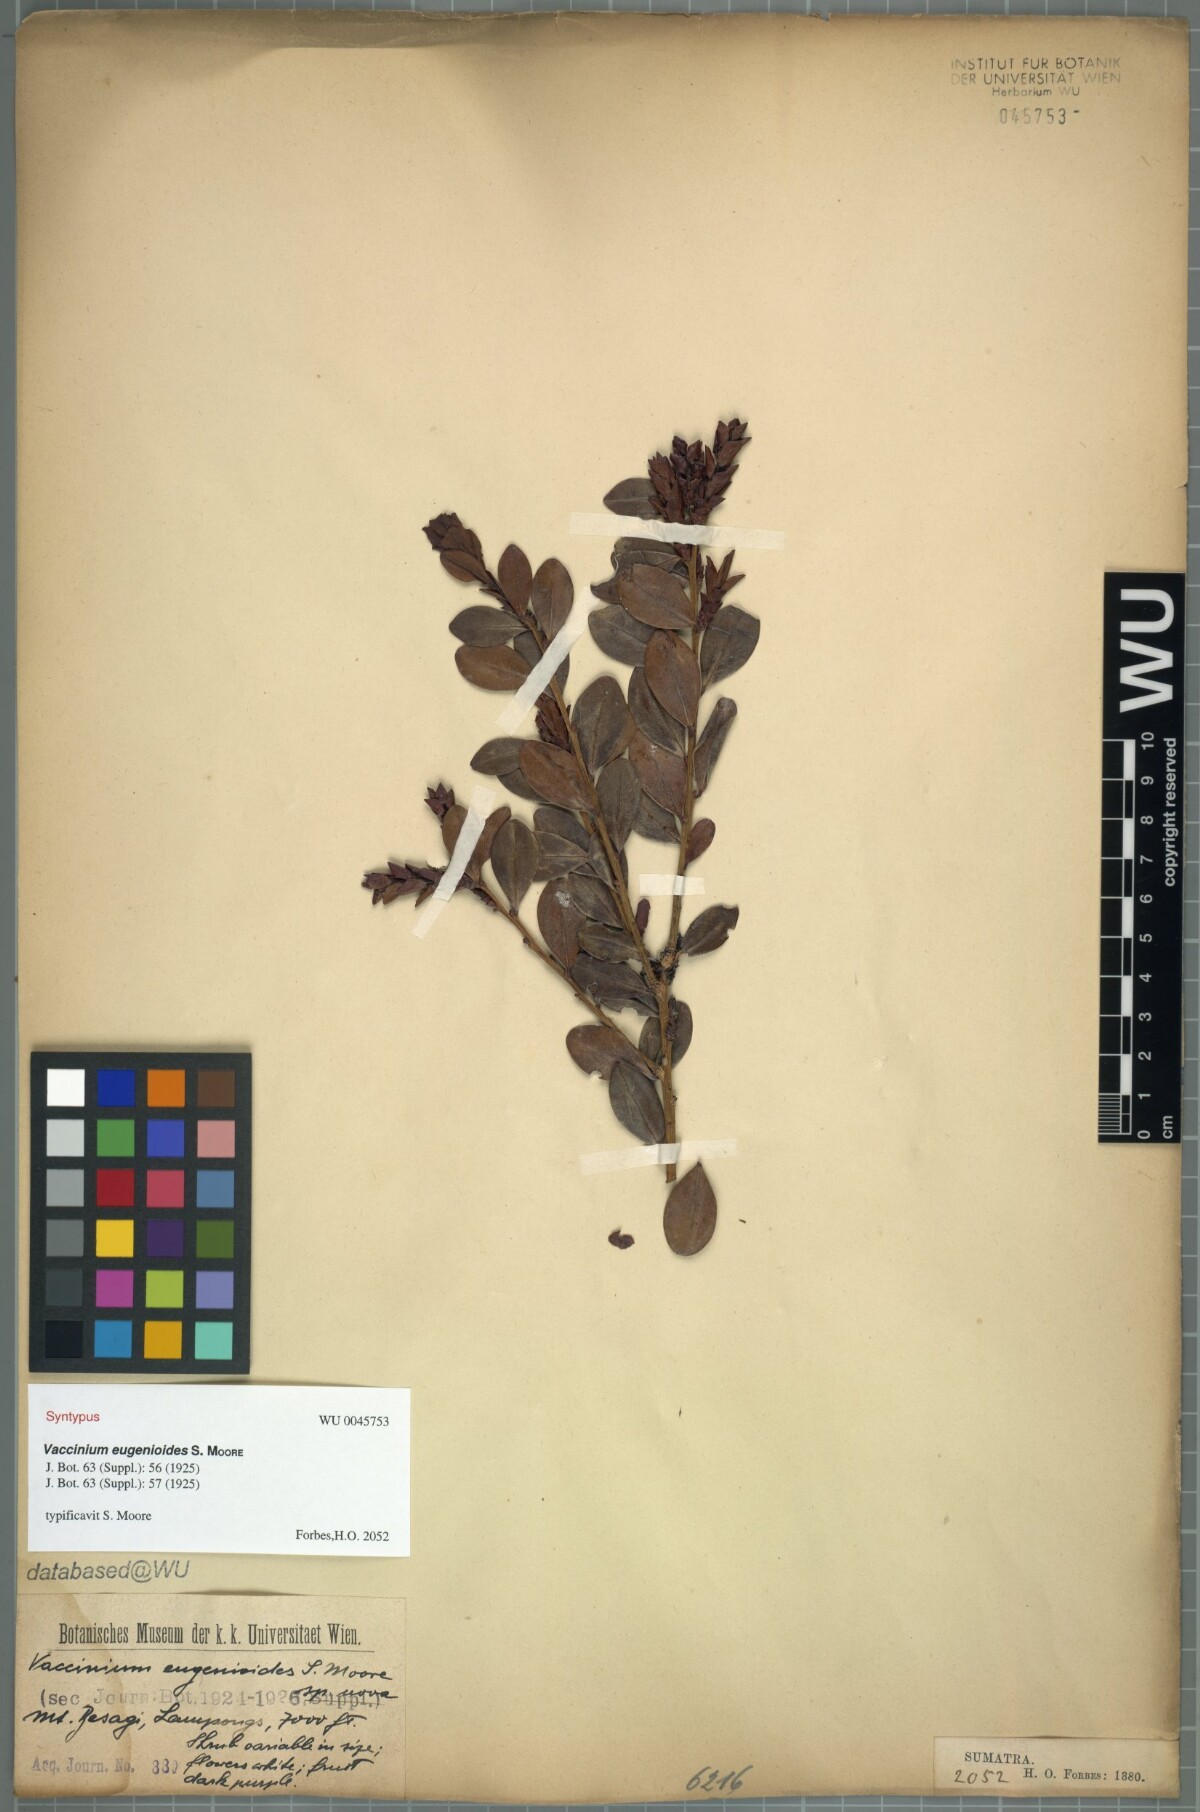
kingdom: Plantae
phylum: Tracheophyta
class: Magnoliopsida
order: Ericales
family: Ericaceae
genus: Vaccinium
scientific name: Vaccinium korinchense
